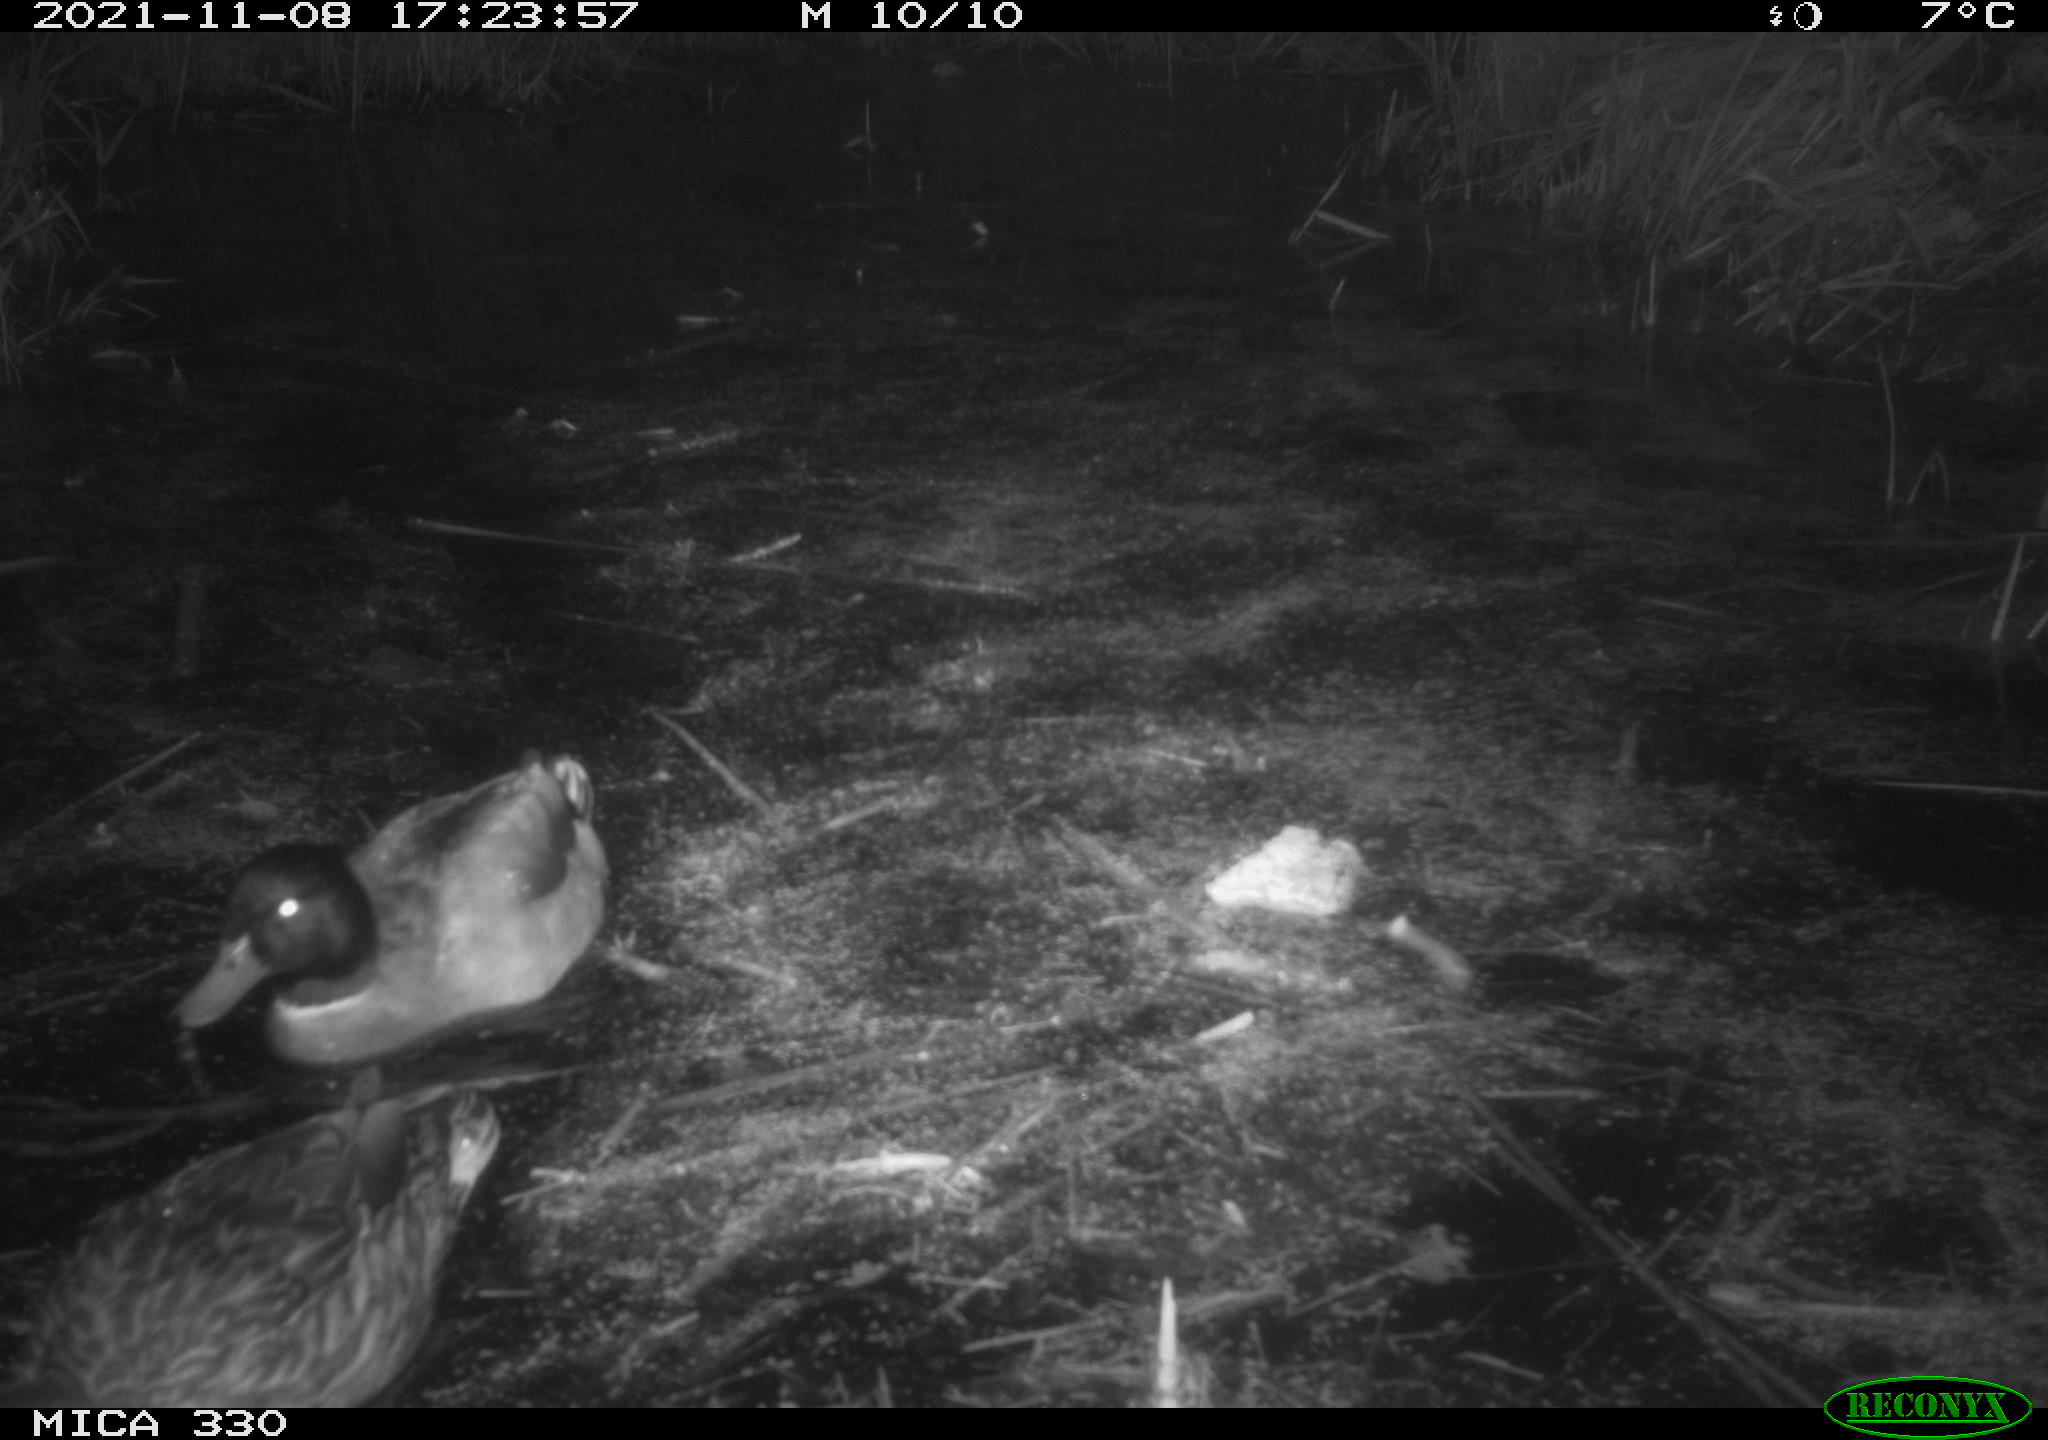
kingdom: Animalia
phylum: Chordata
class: Aves
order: Anseriformes
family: Anatidae
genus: Anas
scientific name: Anas platyrhynchos
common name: Mallard
